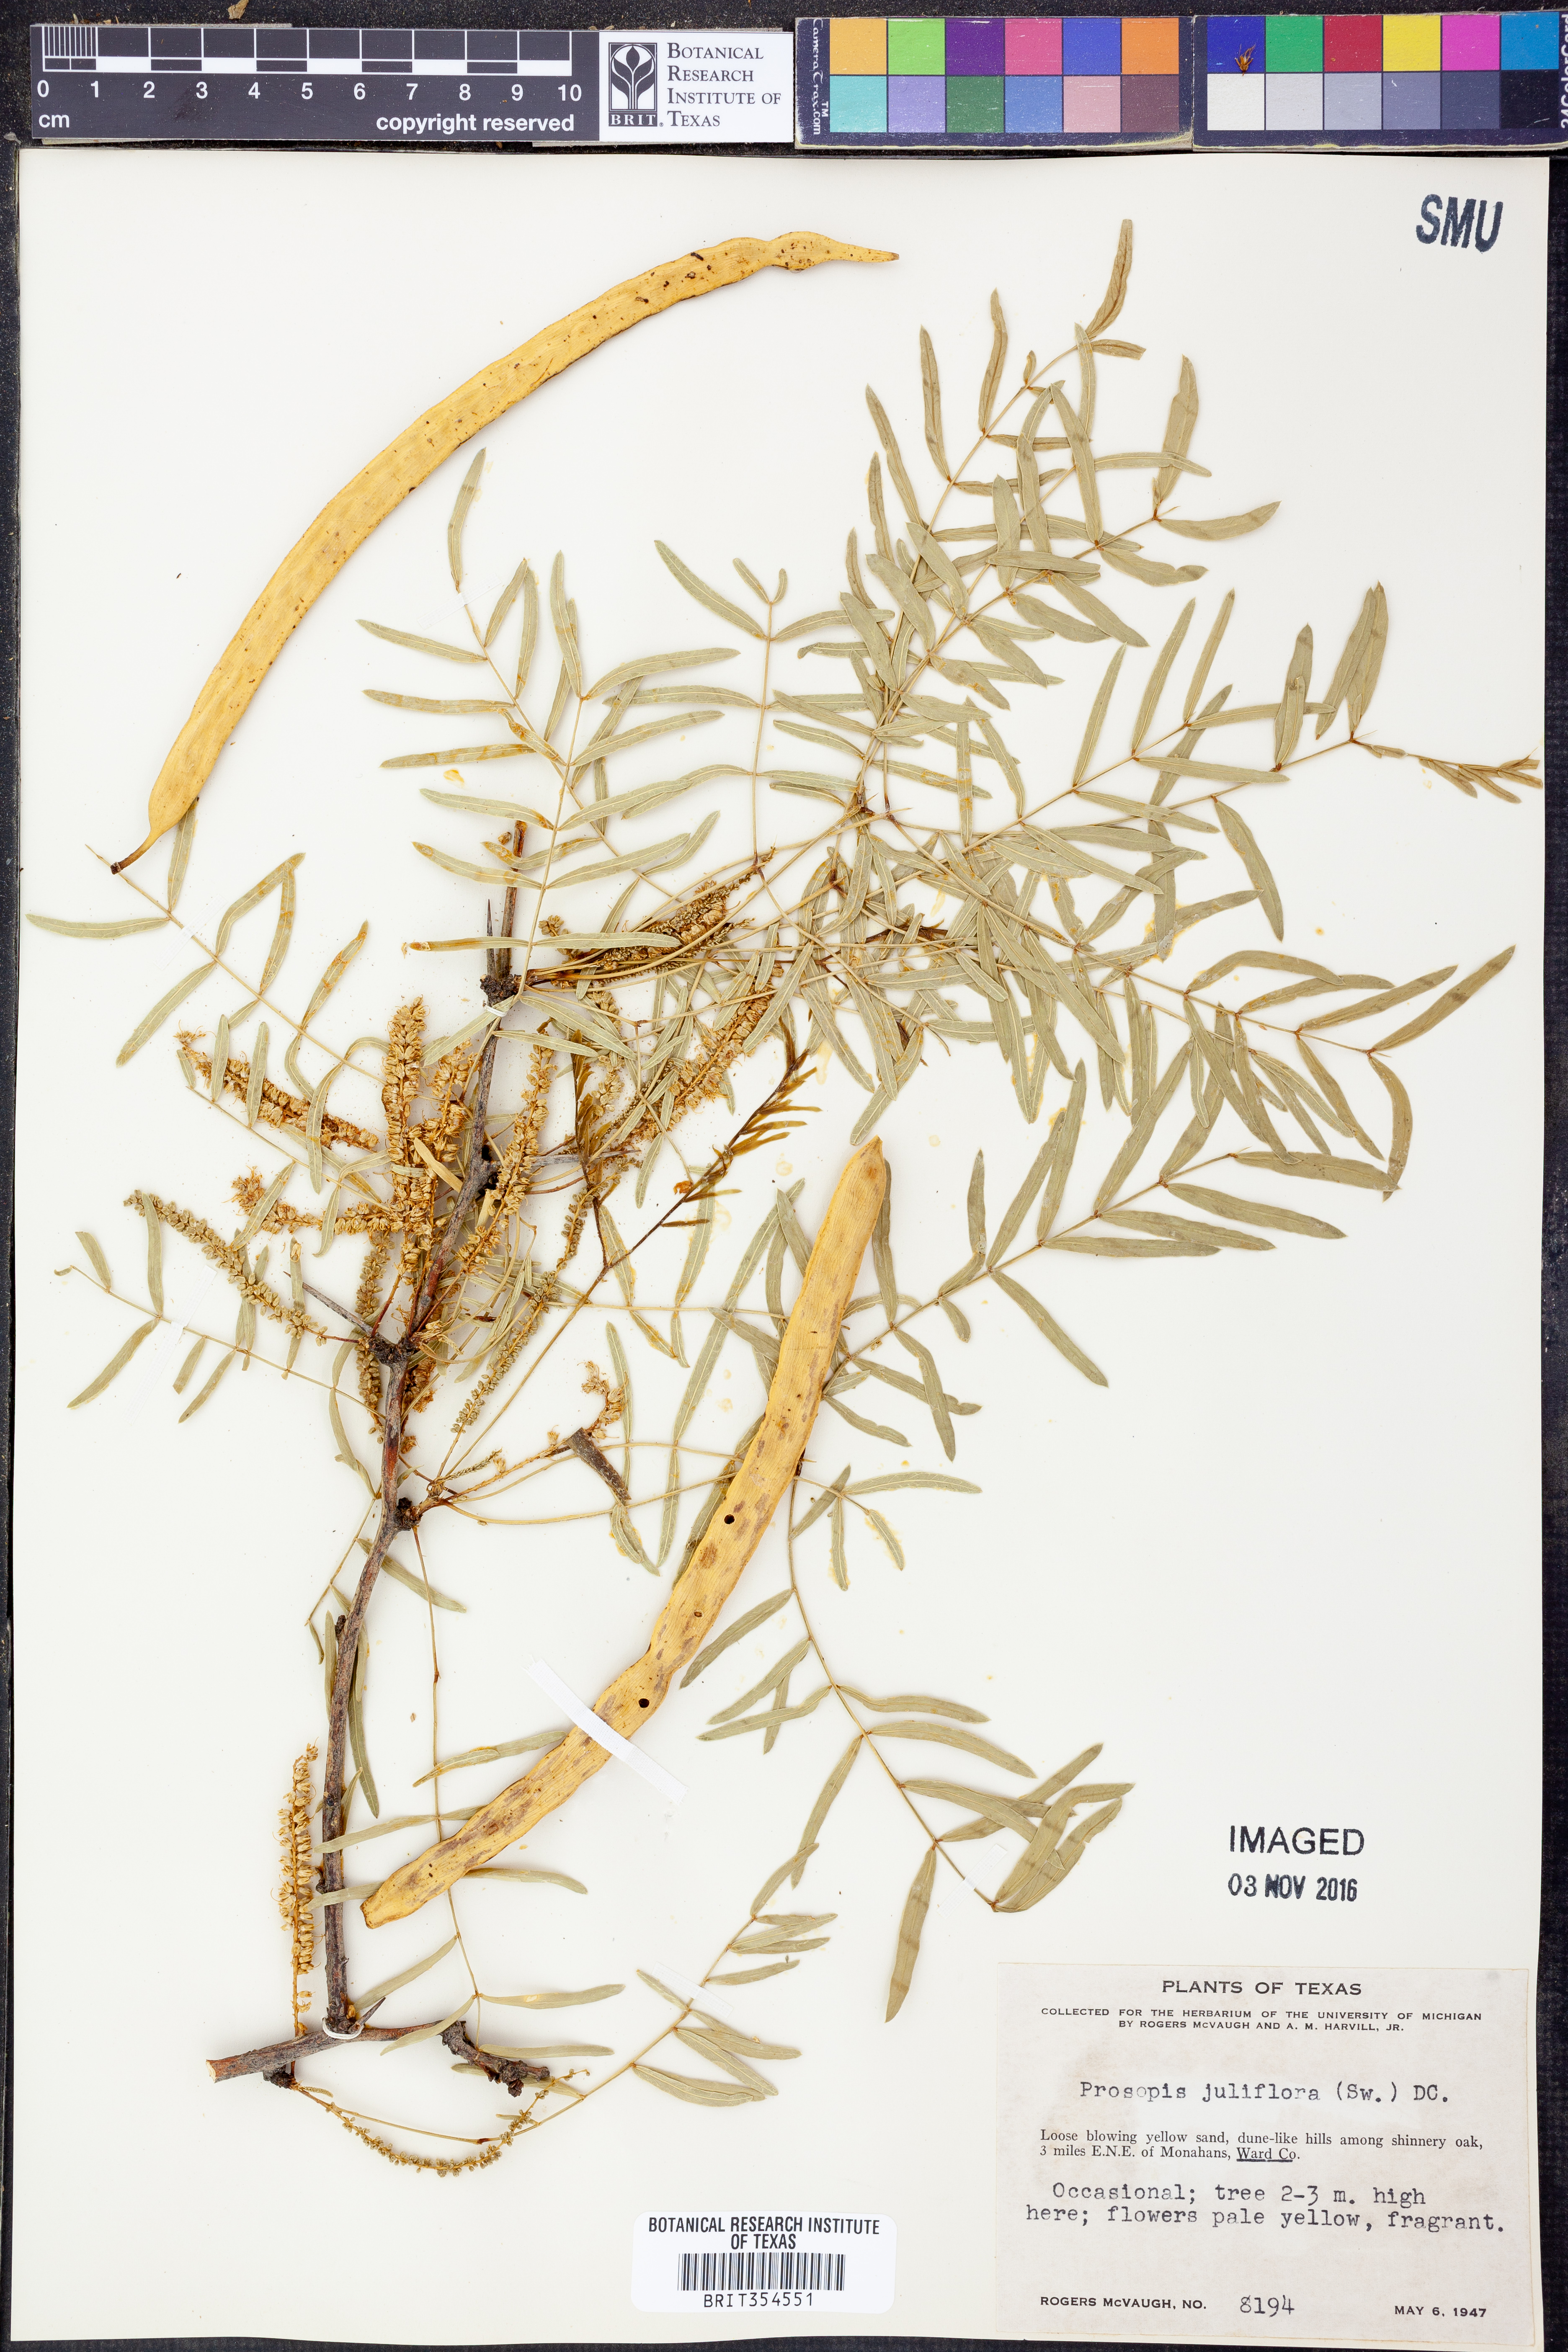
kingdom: Plantae
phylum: Tracheophyta
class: Magnoliopsida
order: Fabales
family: Fabaceae
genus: Prosopis
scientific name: Prosopis juliflora
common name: Mesquite
